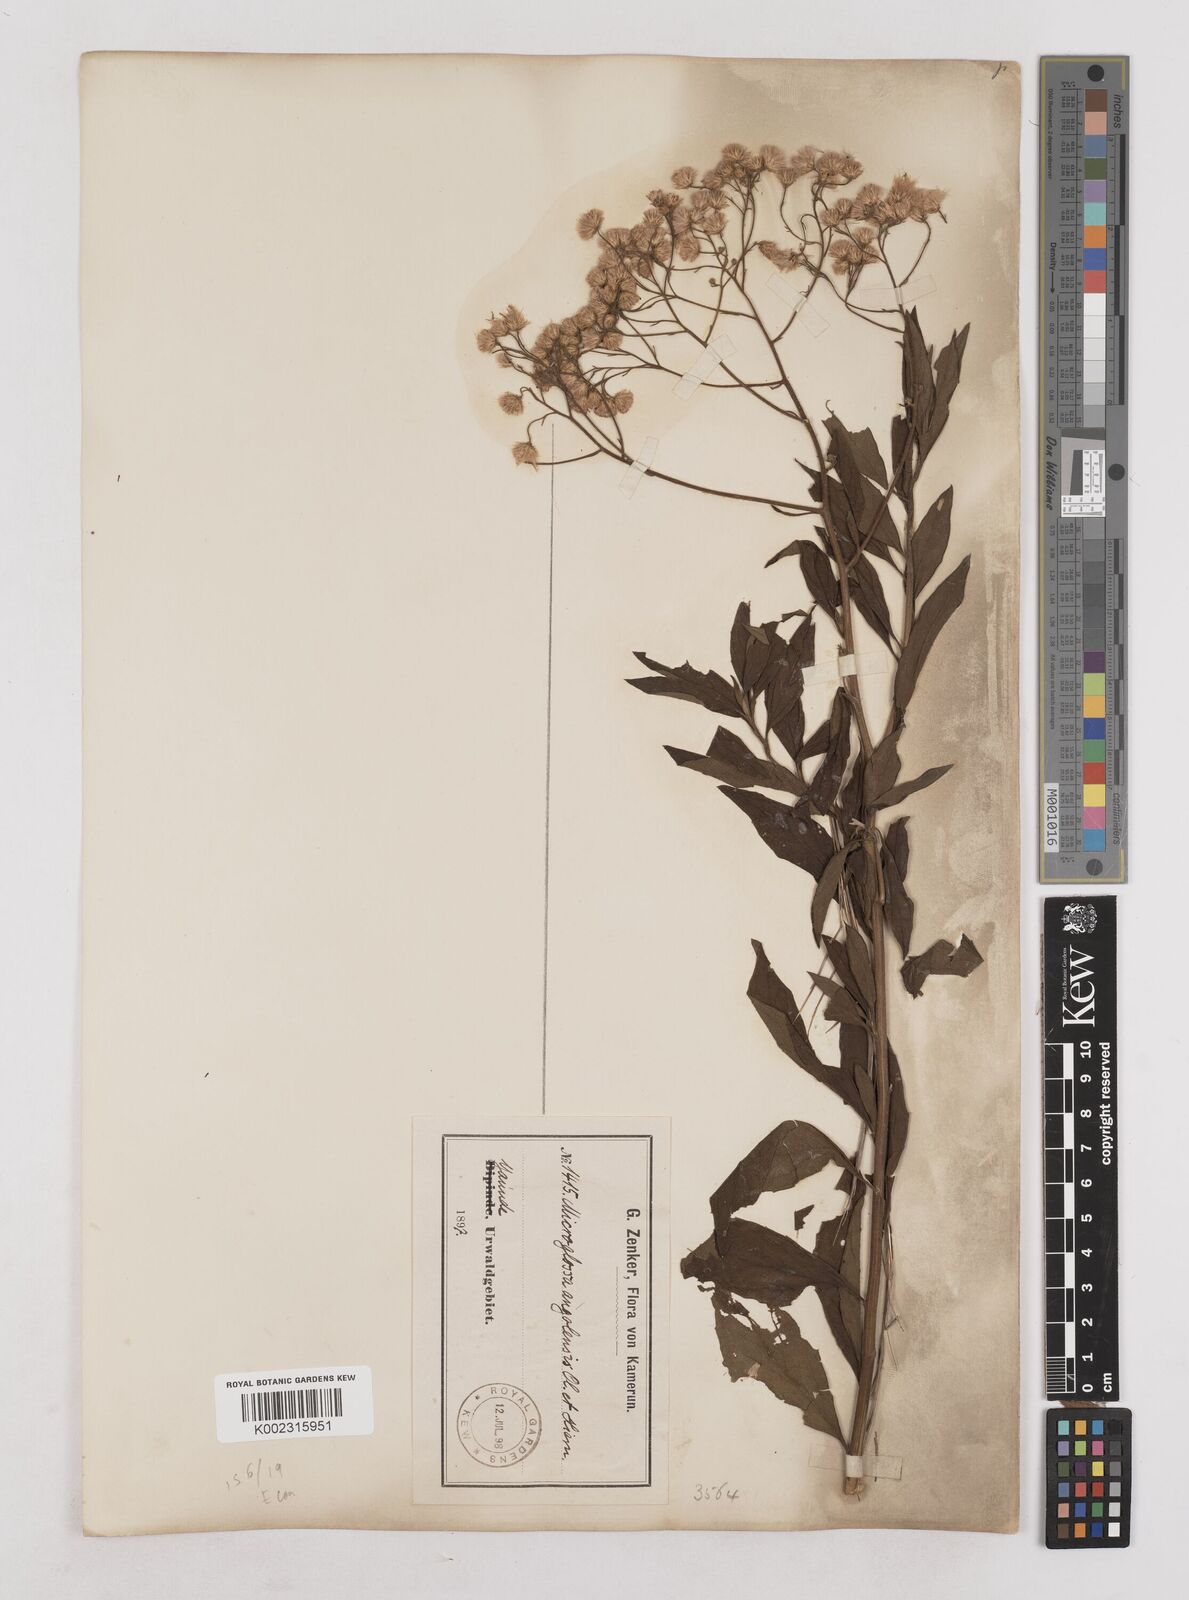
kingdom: Plantae
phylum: Tracheophyta
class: Magnoliopsida
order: Asterales
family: Asteraceae
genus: Microglossa
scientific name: Microglossa pyrrhopappa
